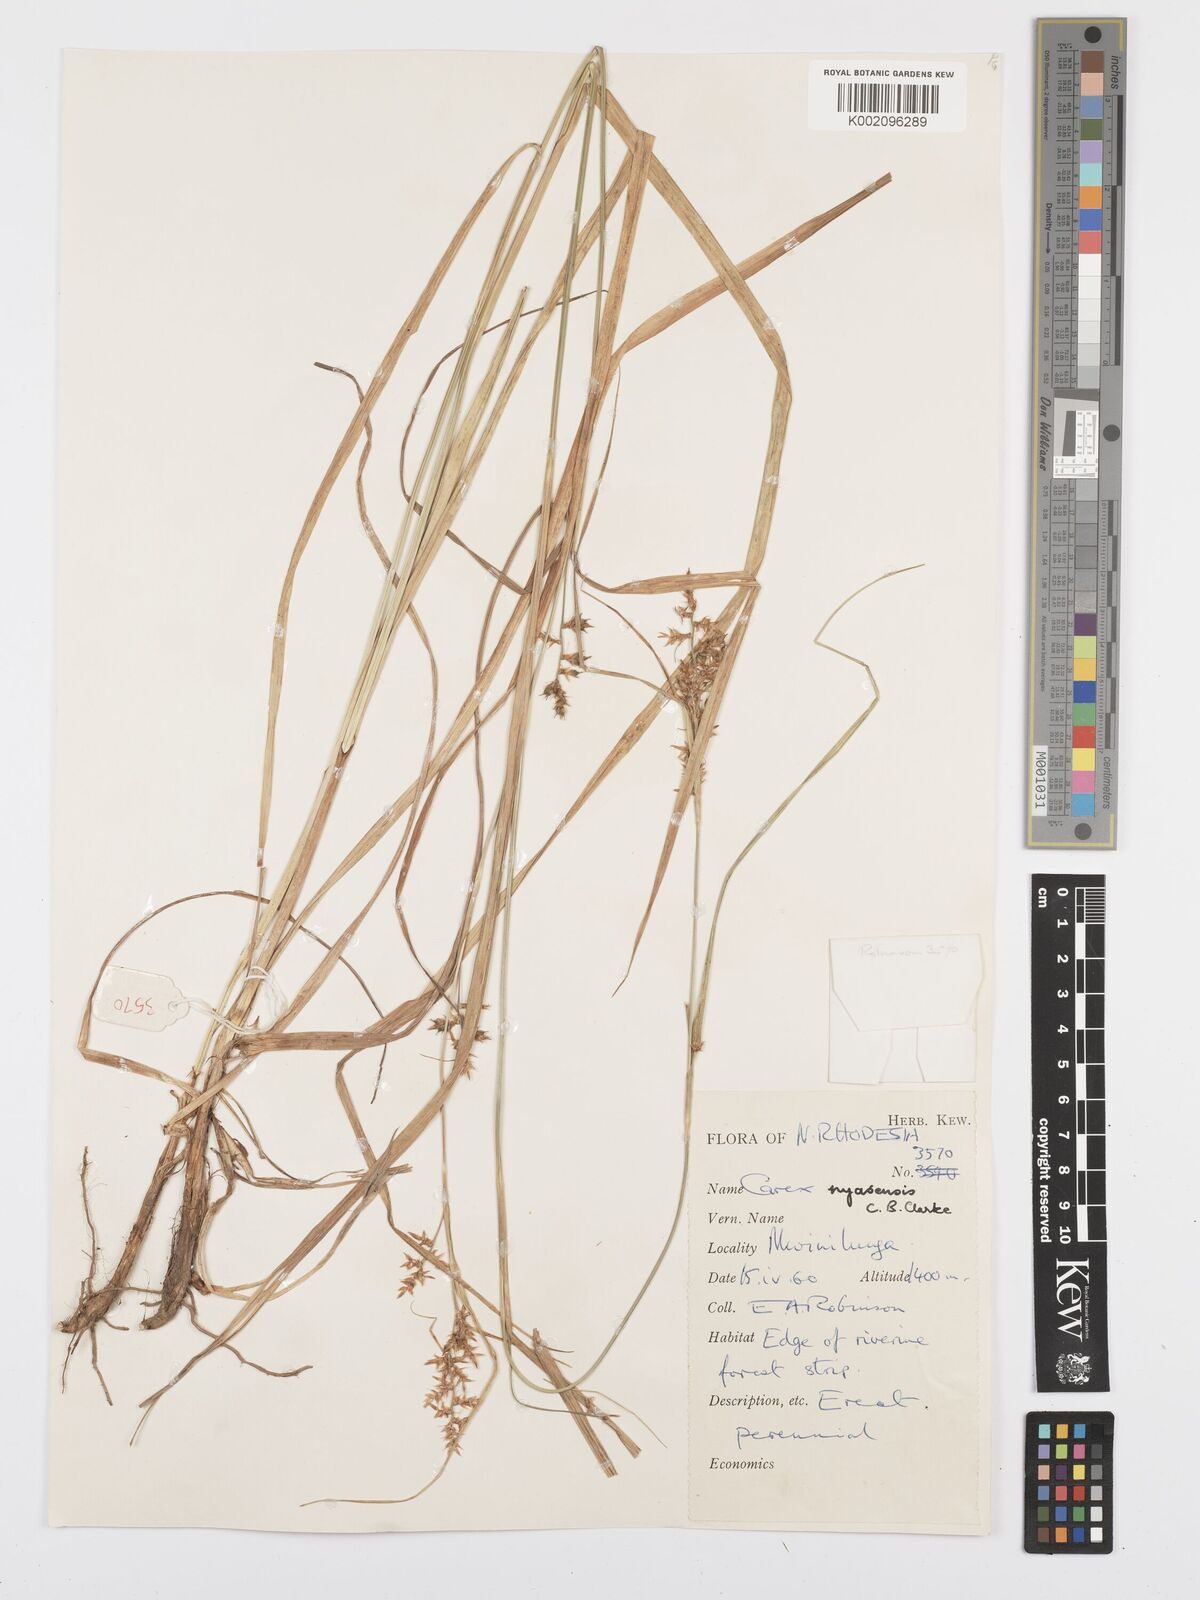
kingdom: Plantae
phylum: Tracheophyta
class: Liliopsida
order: Poales
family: Cyperaceae
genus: Carex
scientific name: Carex spicatopaniculata
